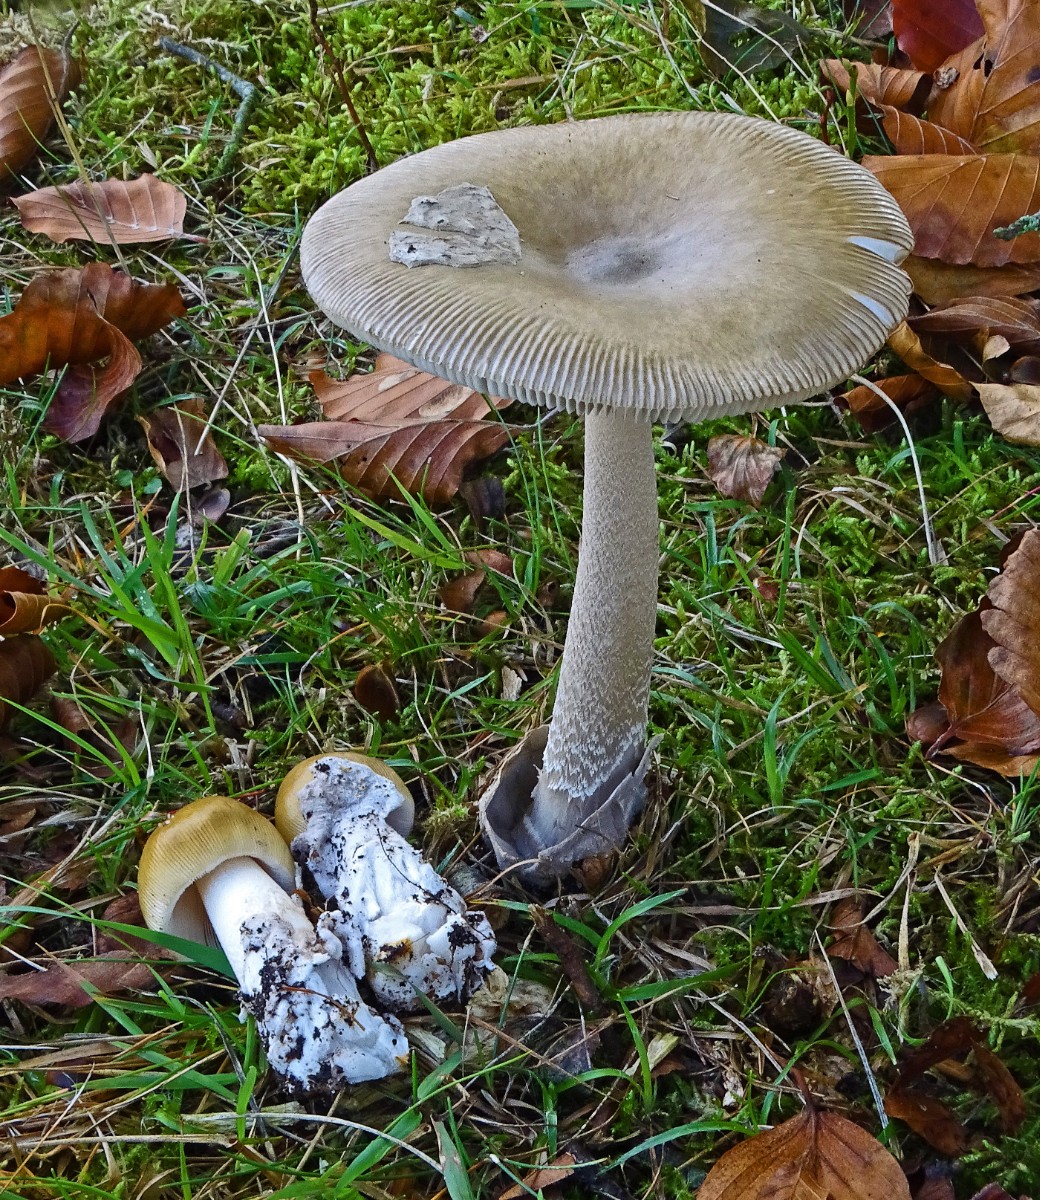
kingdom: Fungi
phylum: Basidiomycota
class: Agaricomycetes
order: Agaricales
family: Amanitaceae
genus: Amanita
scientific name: Amanita submembranacea
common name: gråspættet kam-fluesvamp
